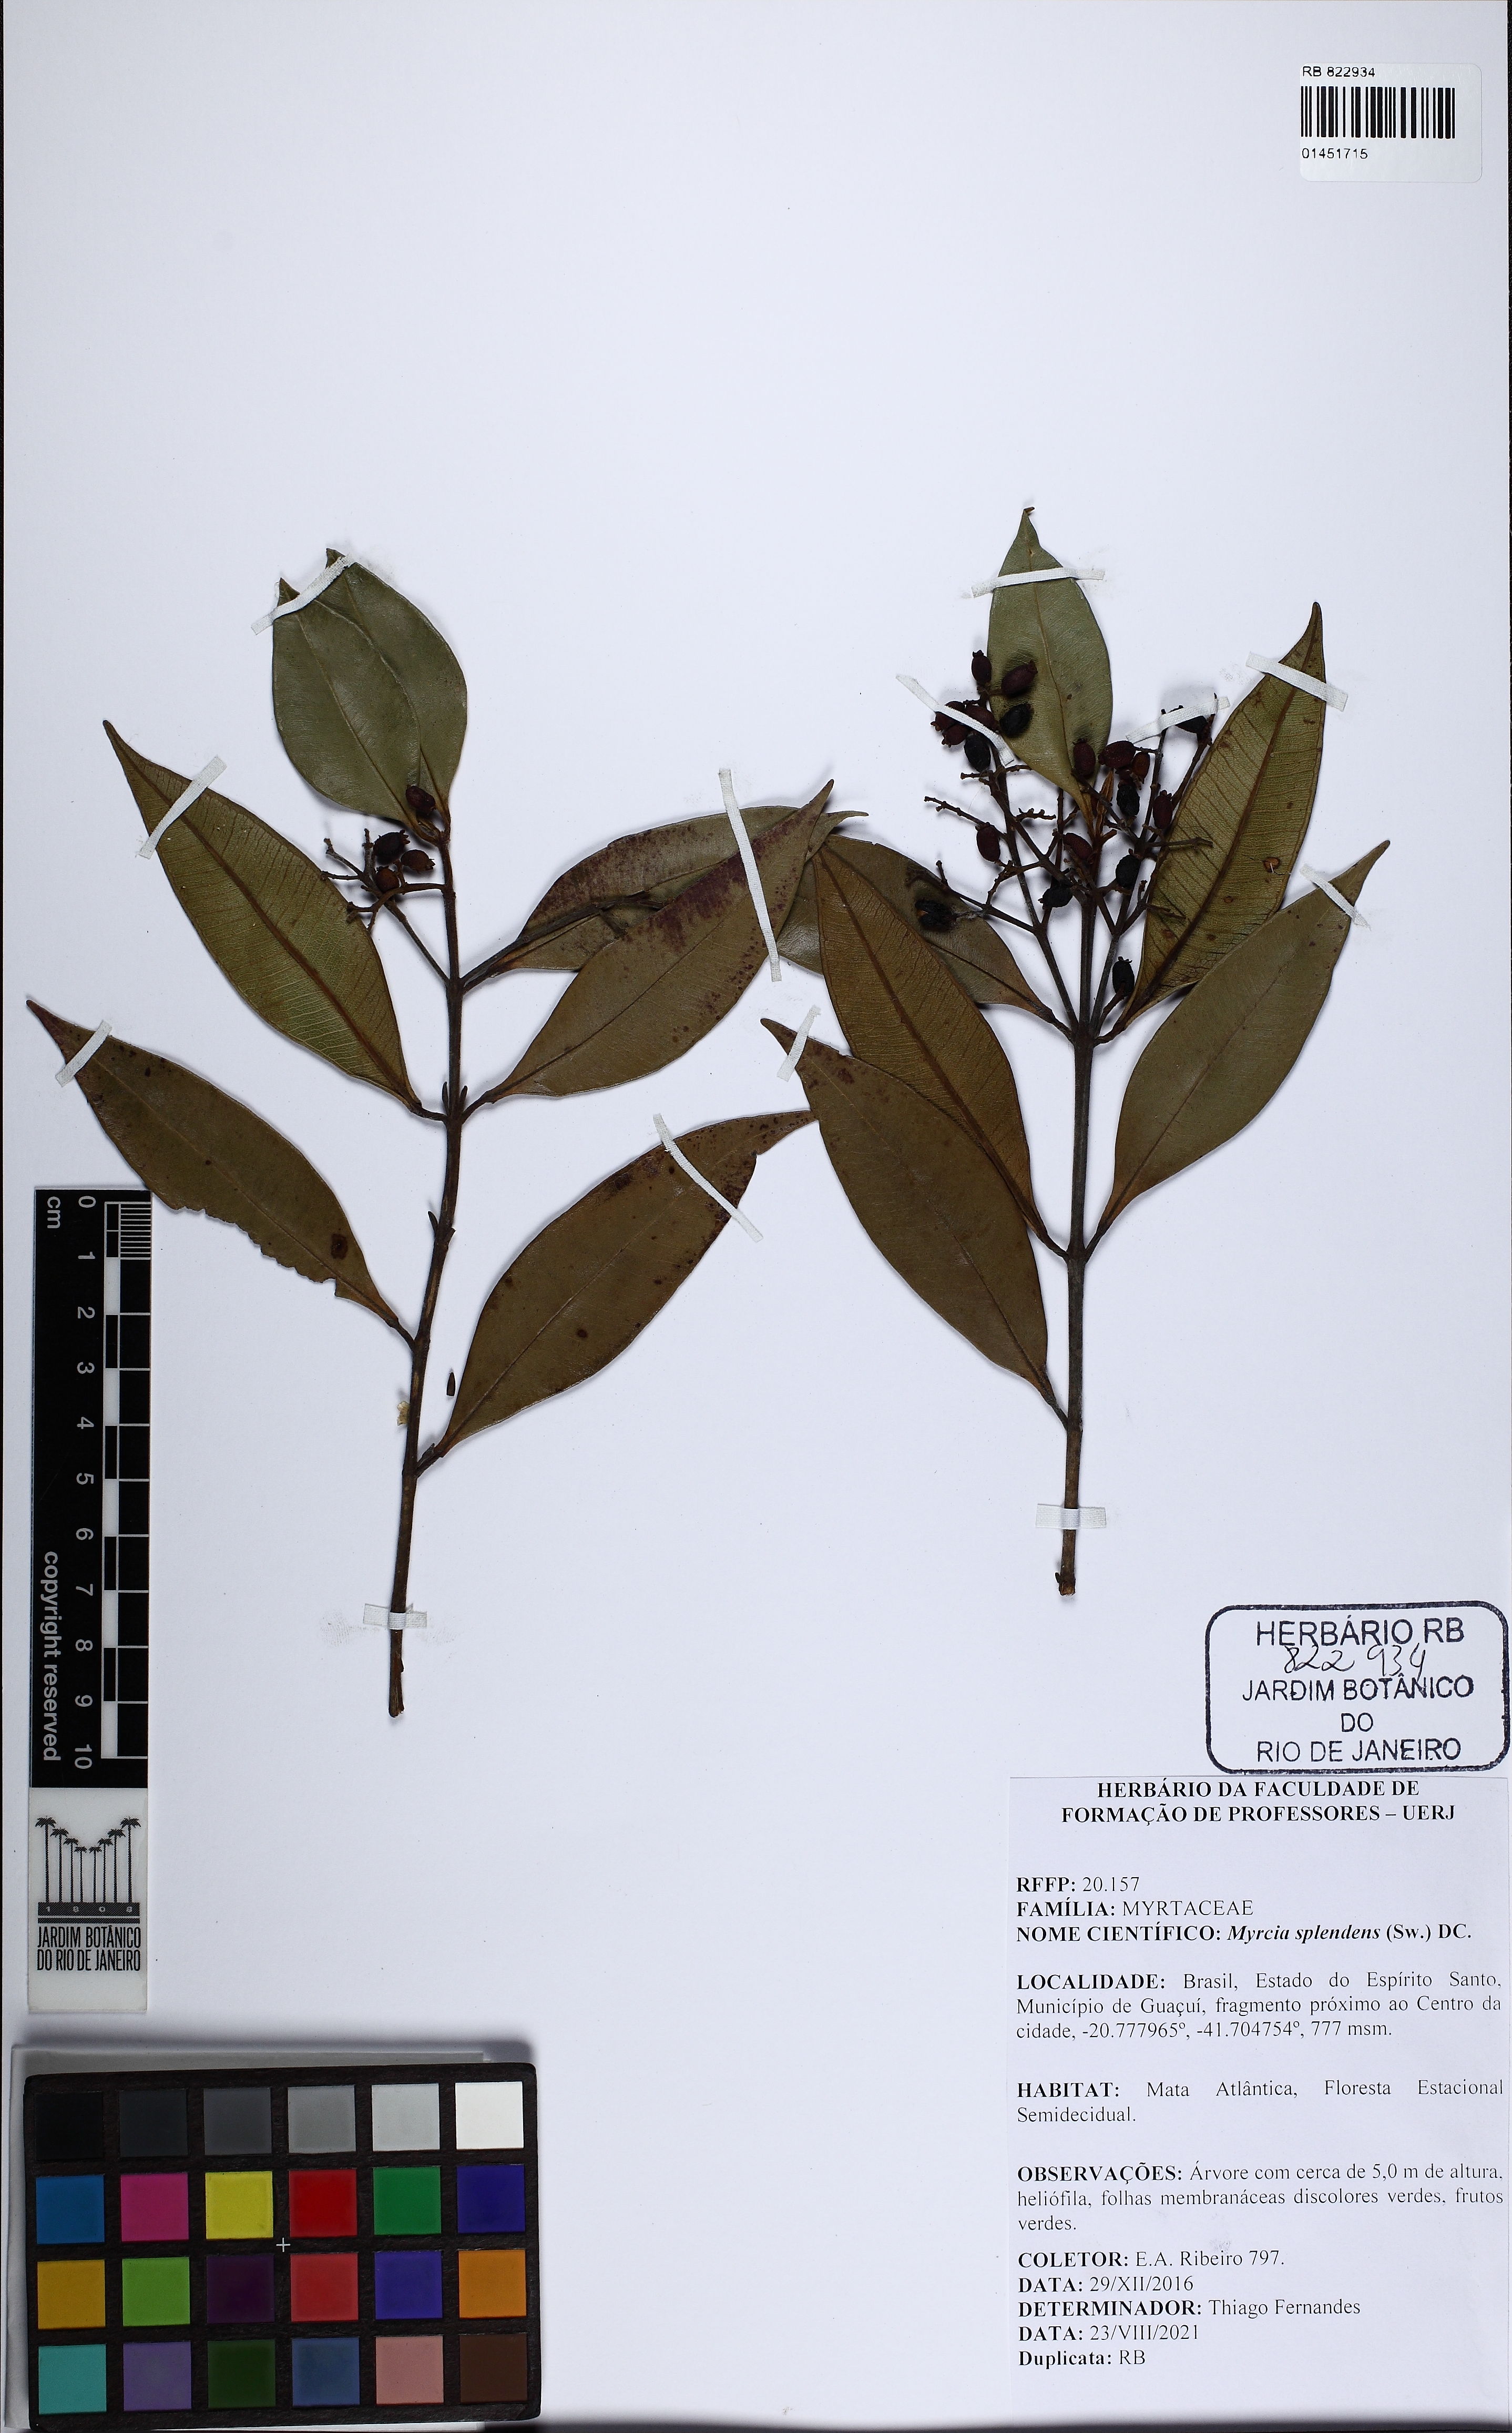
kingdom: Plantae
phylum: Tracheophyta
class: Magnoliopsida
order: Myrtales
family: Myrtaceae
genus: Myrcia
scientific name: Myrcia splendens
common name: Surinam cherry
